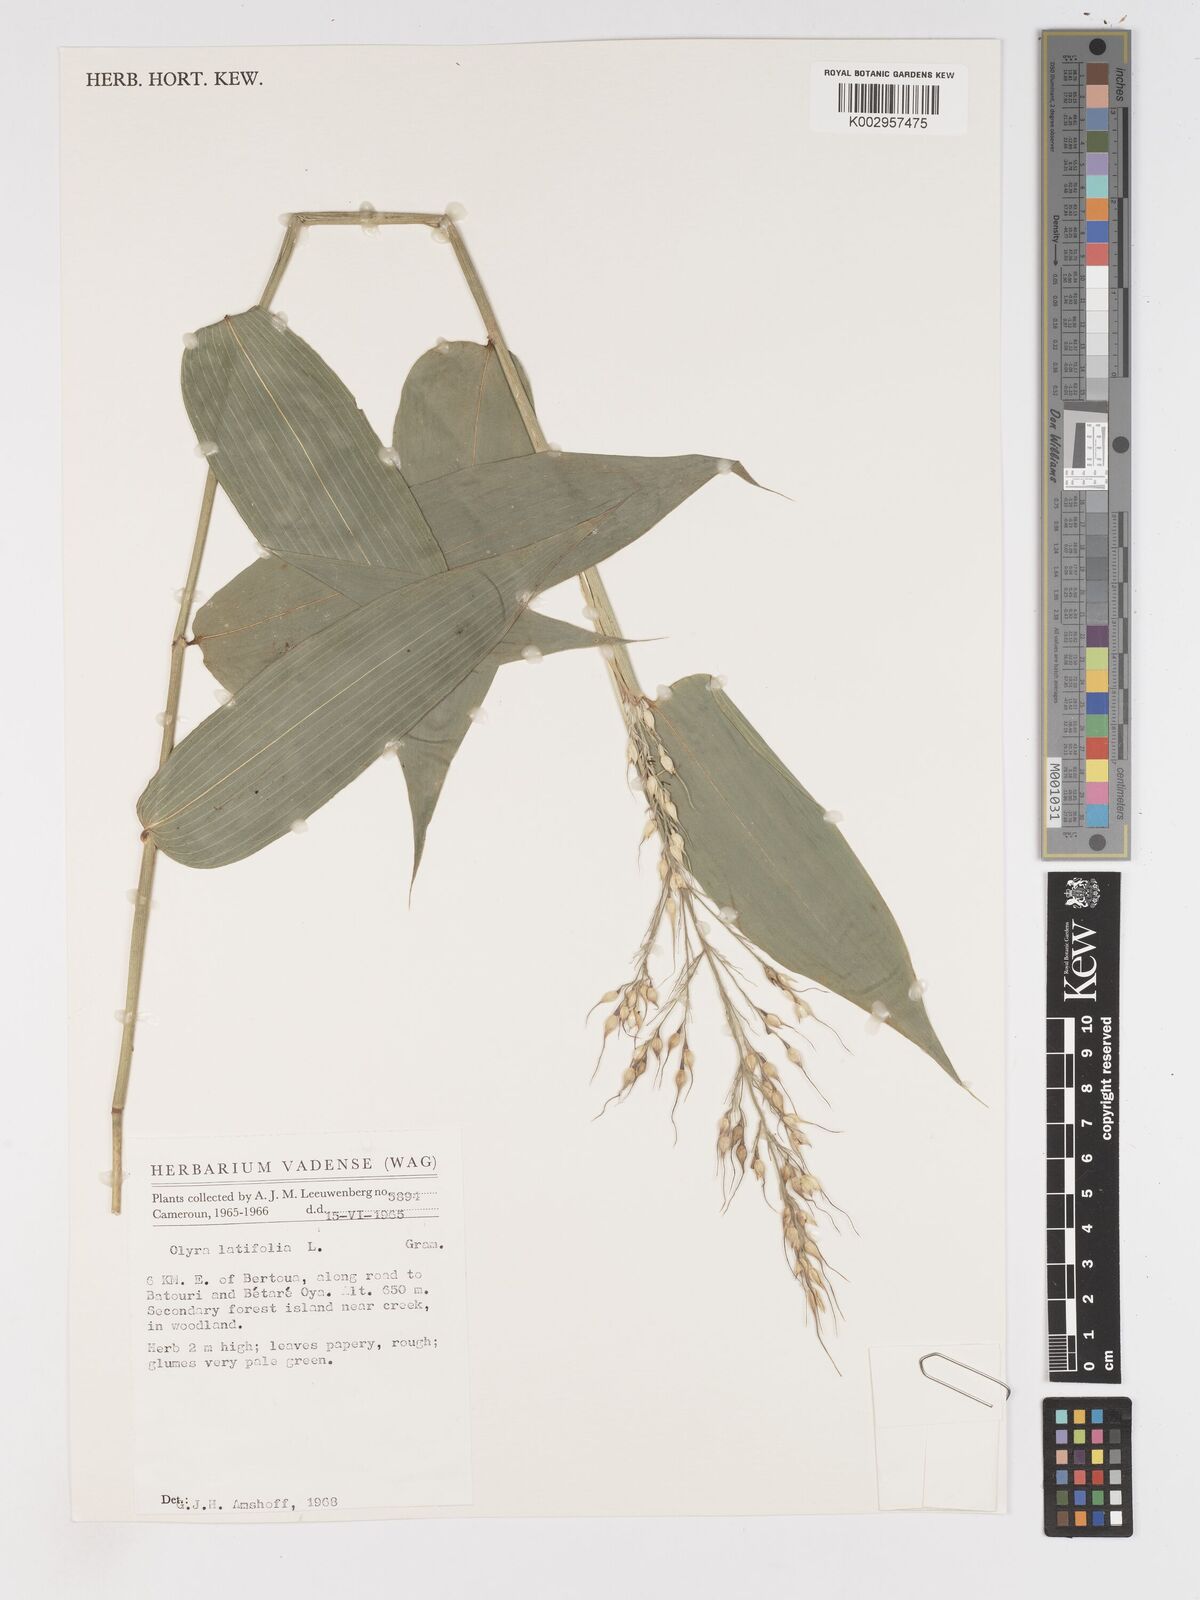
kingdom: Plantae
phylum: Tracheophyta
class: Liliopsida
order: Poales
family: Poaceae
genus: Olyra
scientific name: Olyra latifolia
